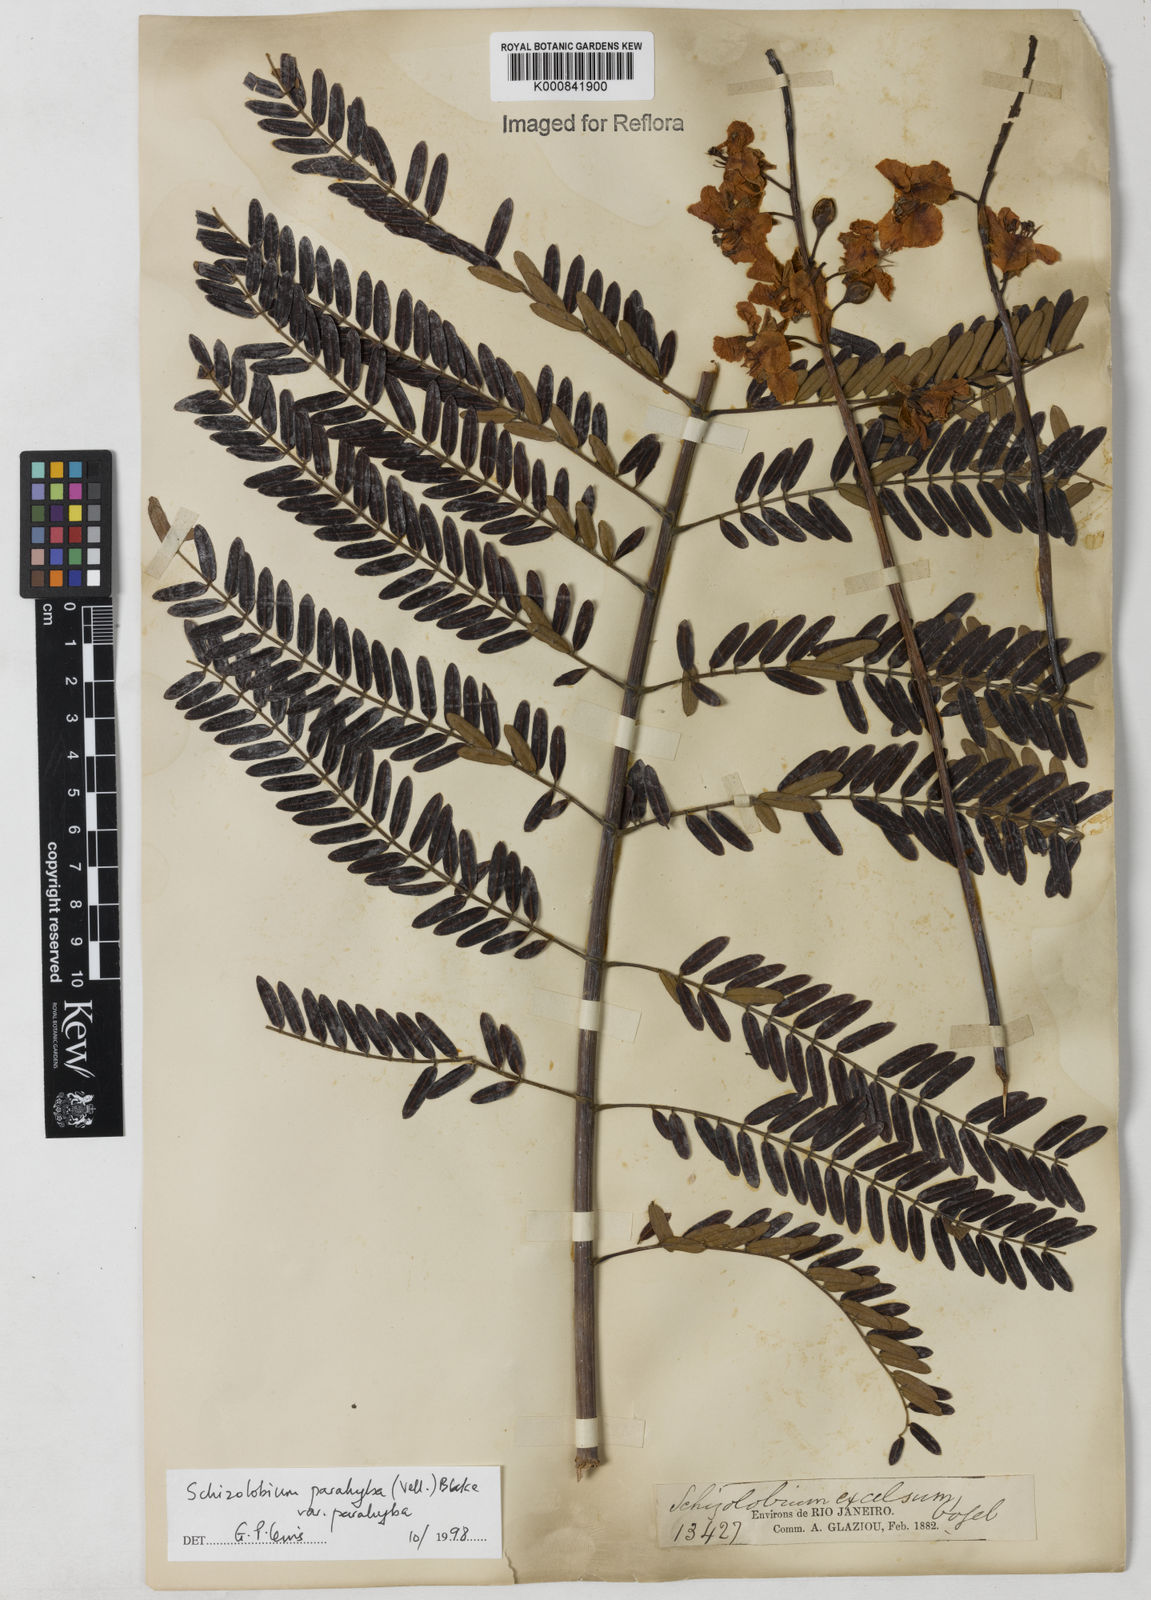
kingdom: Plantae
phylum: Tracheophyta
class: Magnoliopsida
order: Fabales
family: Fabaceae
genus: Schizolobium
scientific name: Schizolobium parahyba
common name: Brazilian firetree
